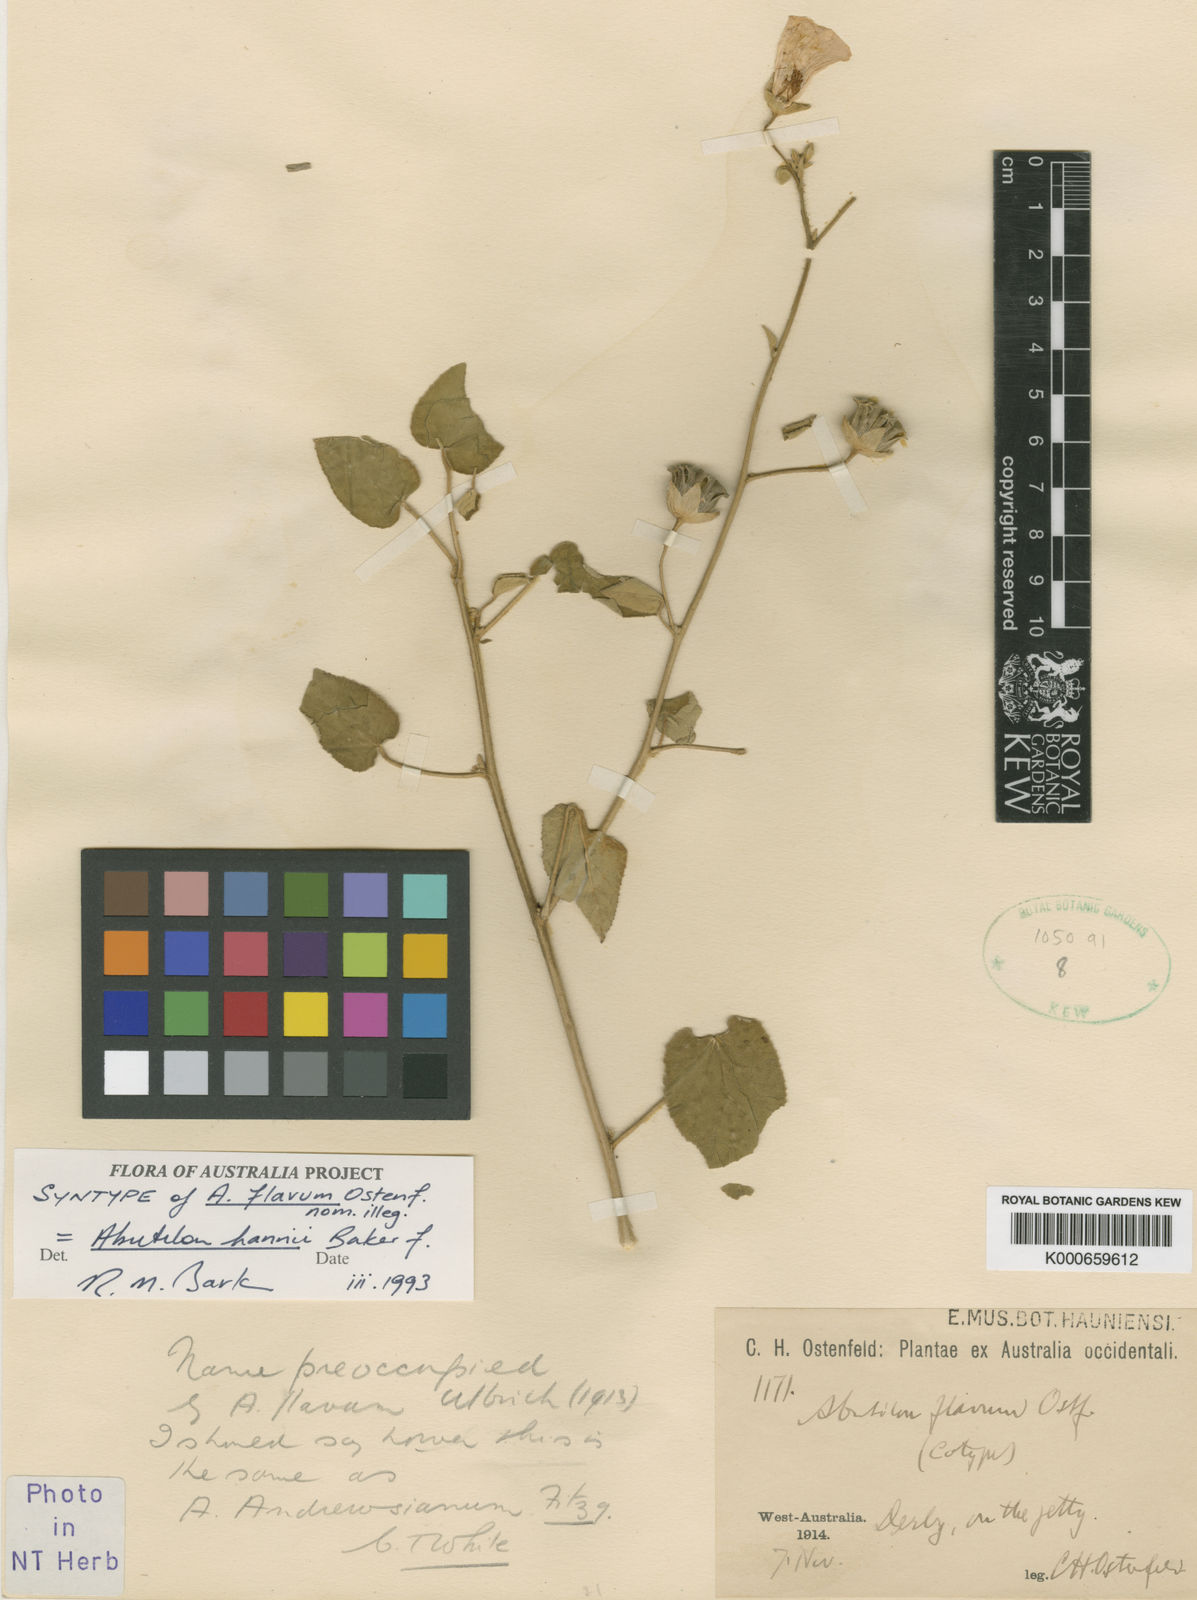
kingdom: Plantae
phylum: Tracheophyta
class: Magnoliopsida
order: Malvales
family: Malvaceae
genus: Abutilon
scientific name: Abutilon hannii
